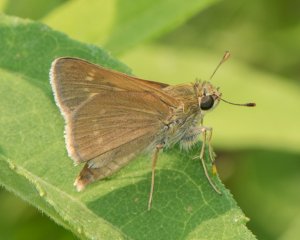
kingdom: Animalia
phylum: Arthropoda
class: Insecta
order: Lepidoptera
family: Hesperiidae
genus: Polites
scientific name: Polites
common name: Crossline Skipper
